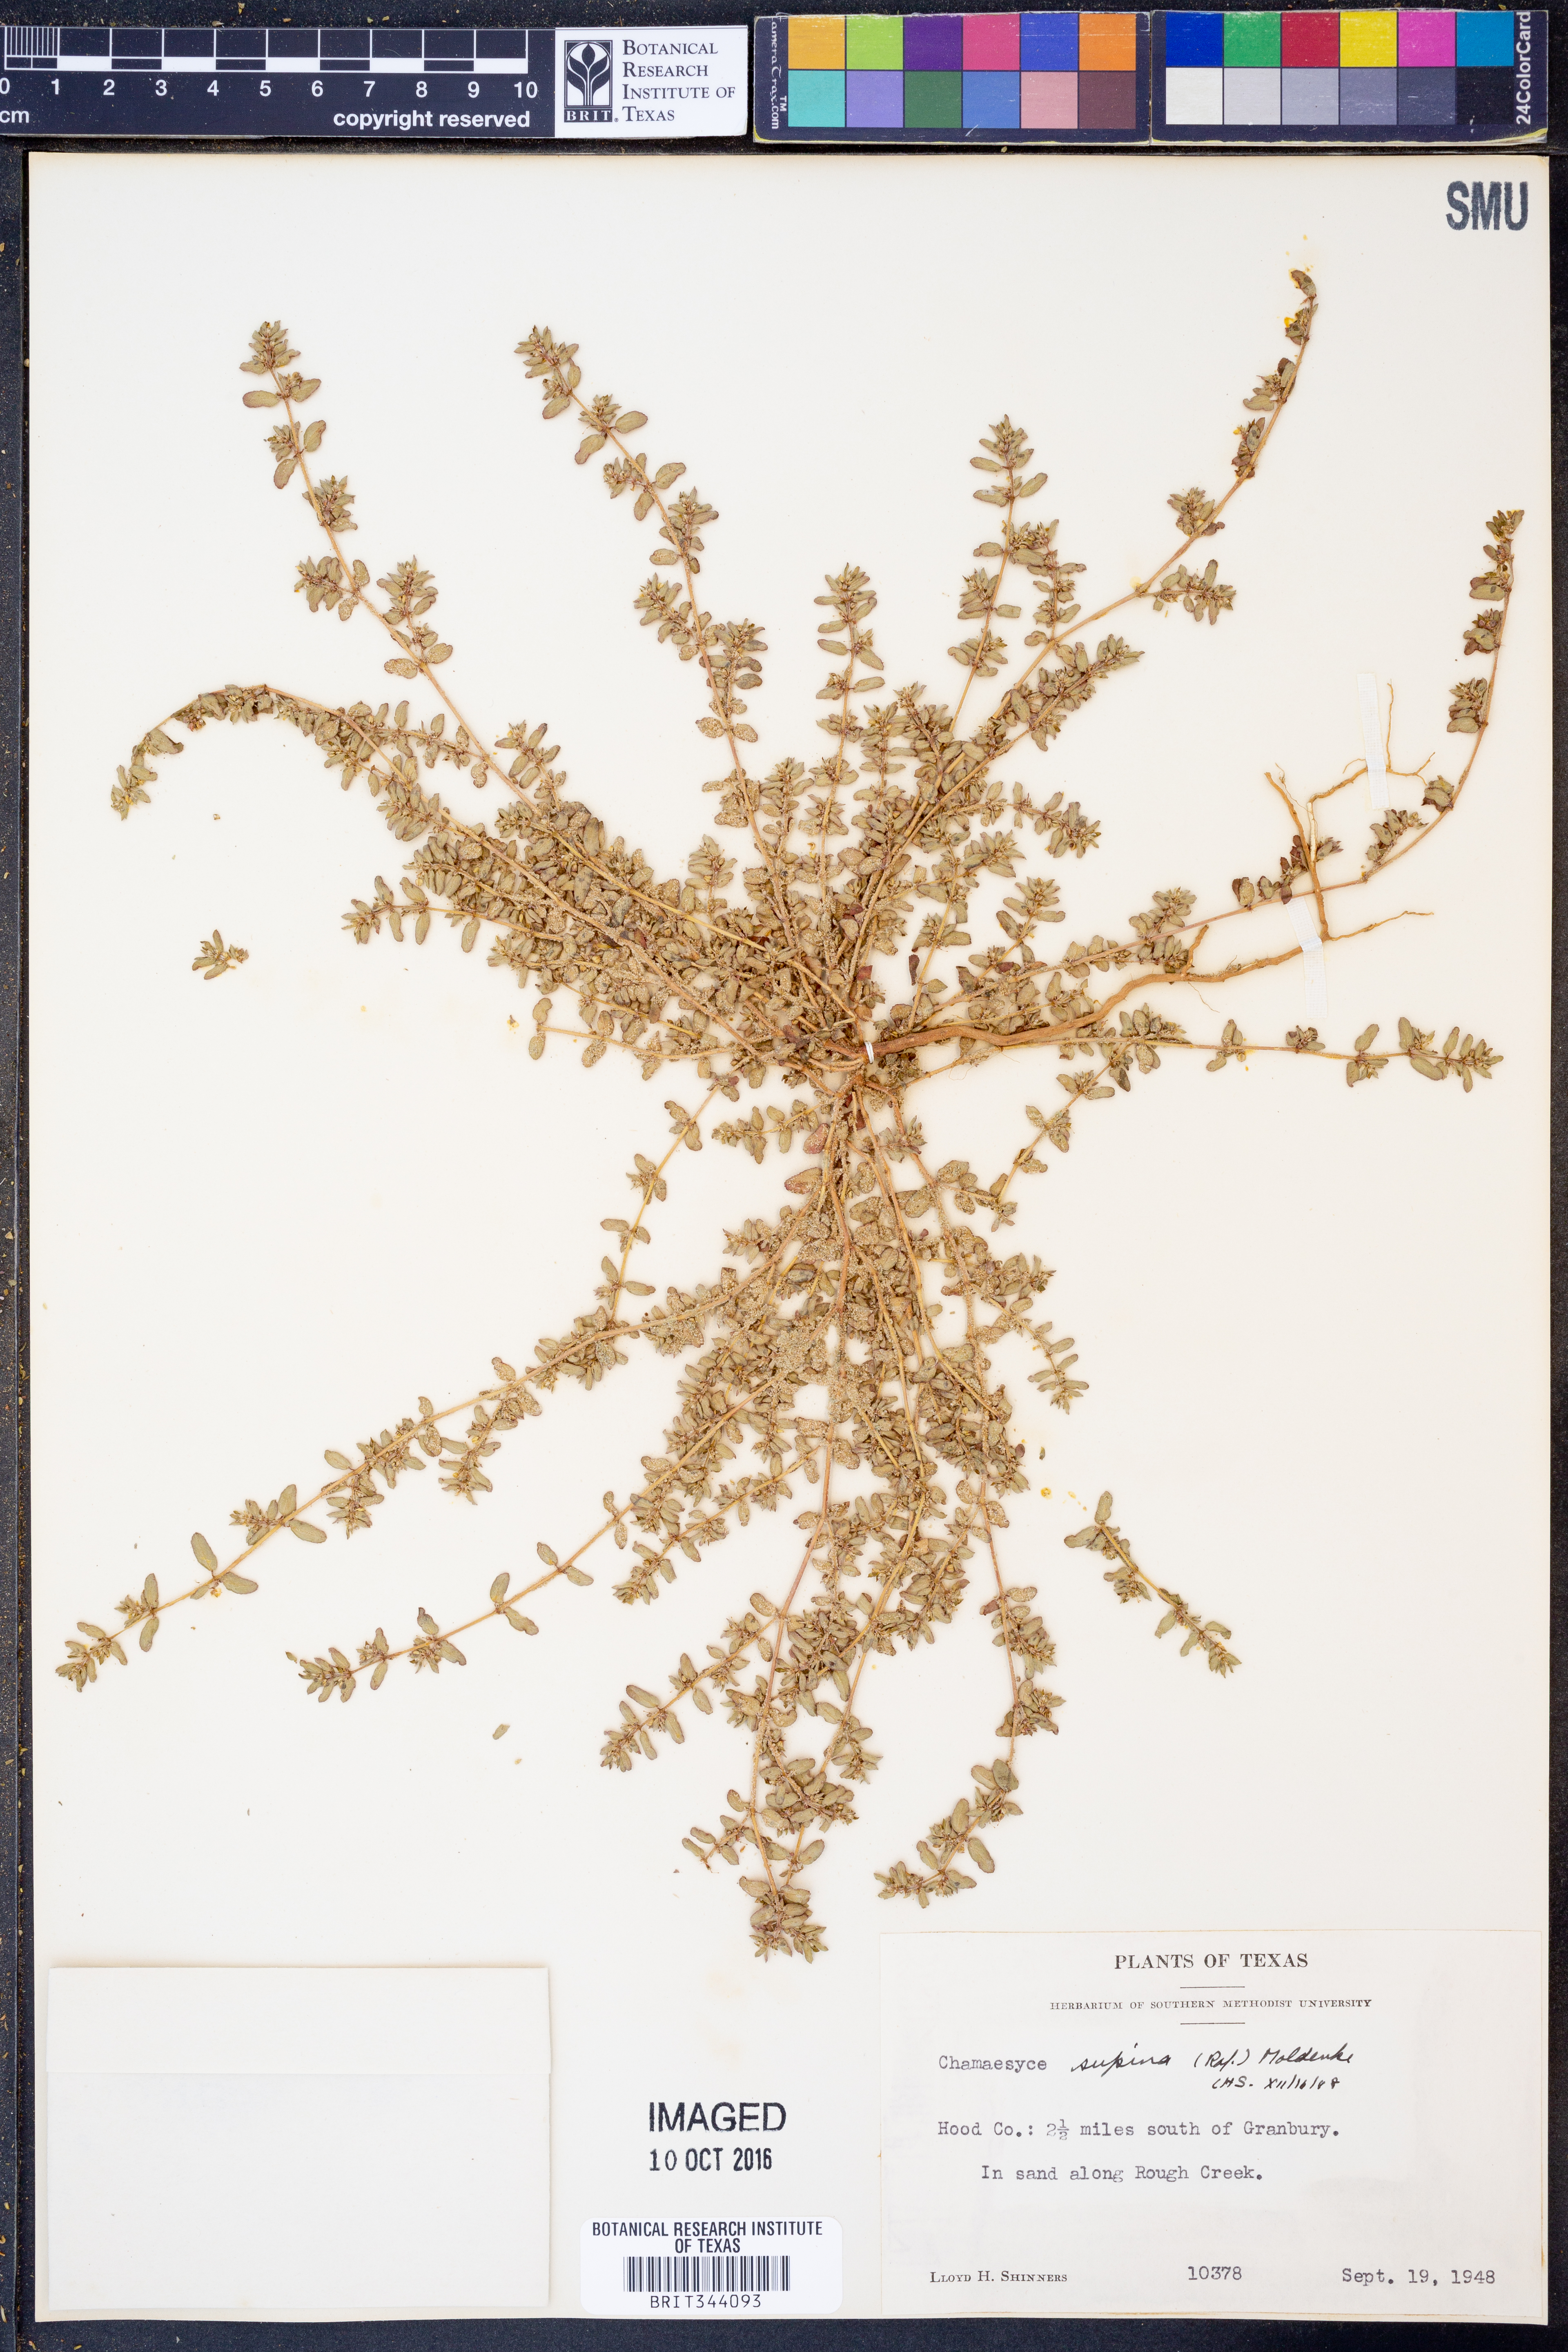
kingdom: Plantae
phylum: Tracheophyta
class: Magnoliopsida
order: Malpighiales
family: Euphorbiaceae
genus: Euphorbia
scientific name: Euphorbia maculata
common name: Spotted spurge
